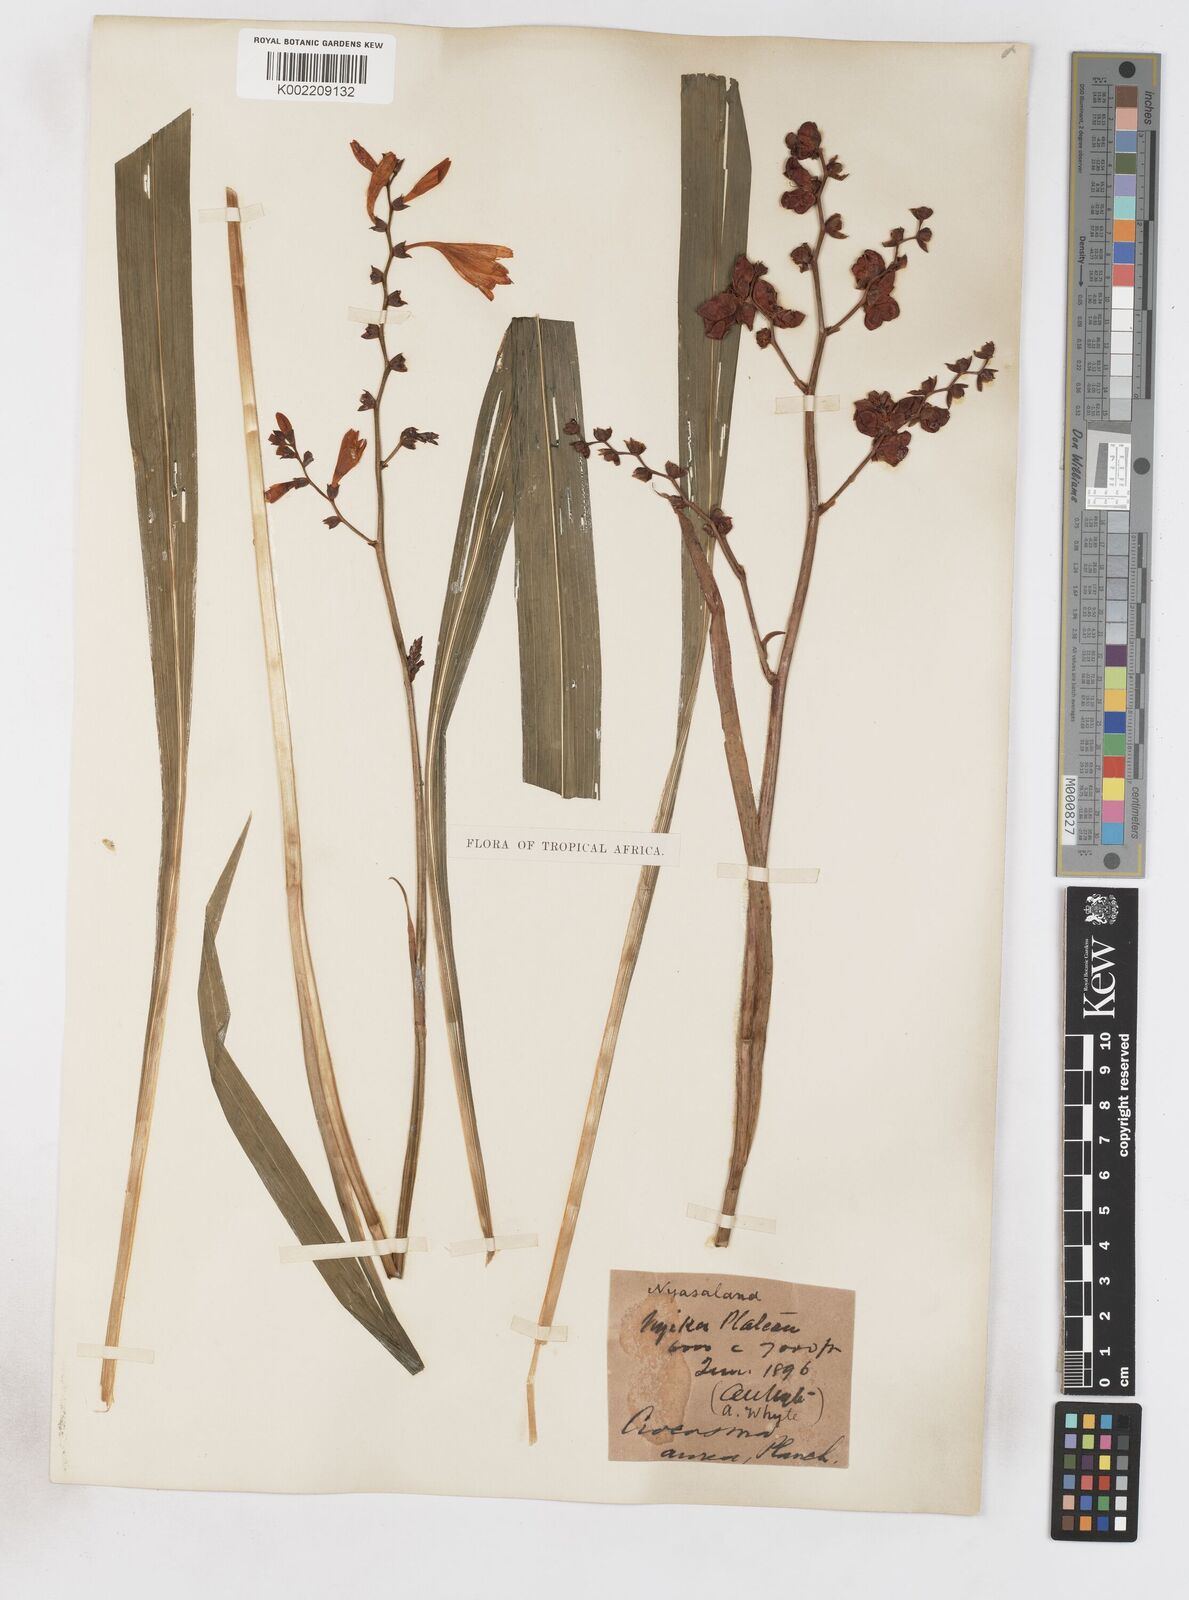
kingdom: Plantae
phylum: Tracheophyta
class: Liliopsida
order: Asparagales
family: Iridaceae
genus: Crocosmia
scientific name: Crocosmia aurea
